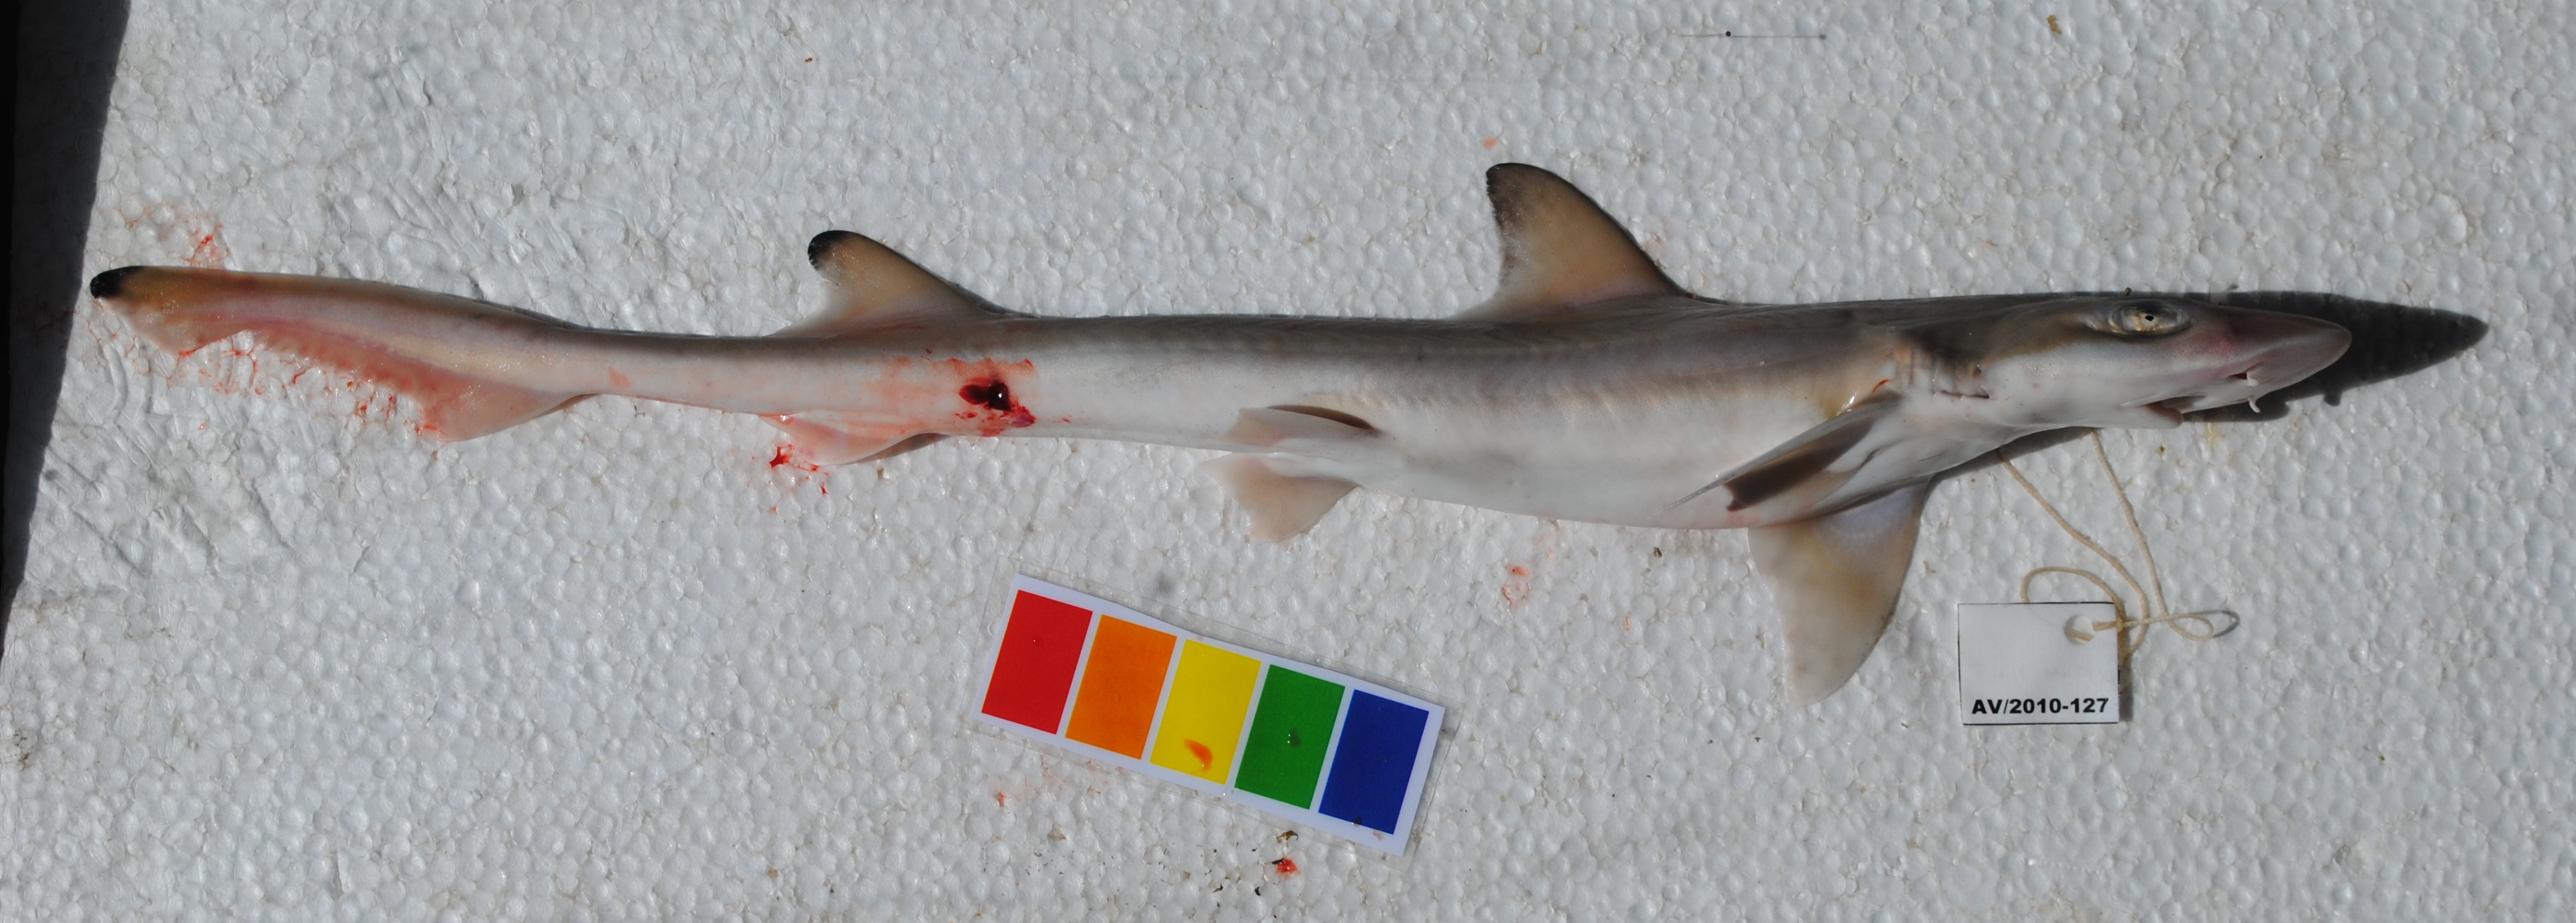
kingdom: Animalia
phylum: Chordata
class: Elasmobranchii
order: Carcharhiniformes
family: Triakidae
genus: Mustelus
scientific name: Mustelus mosis
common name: Arabian smooth-hound
